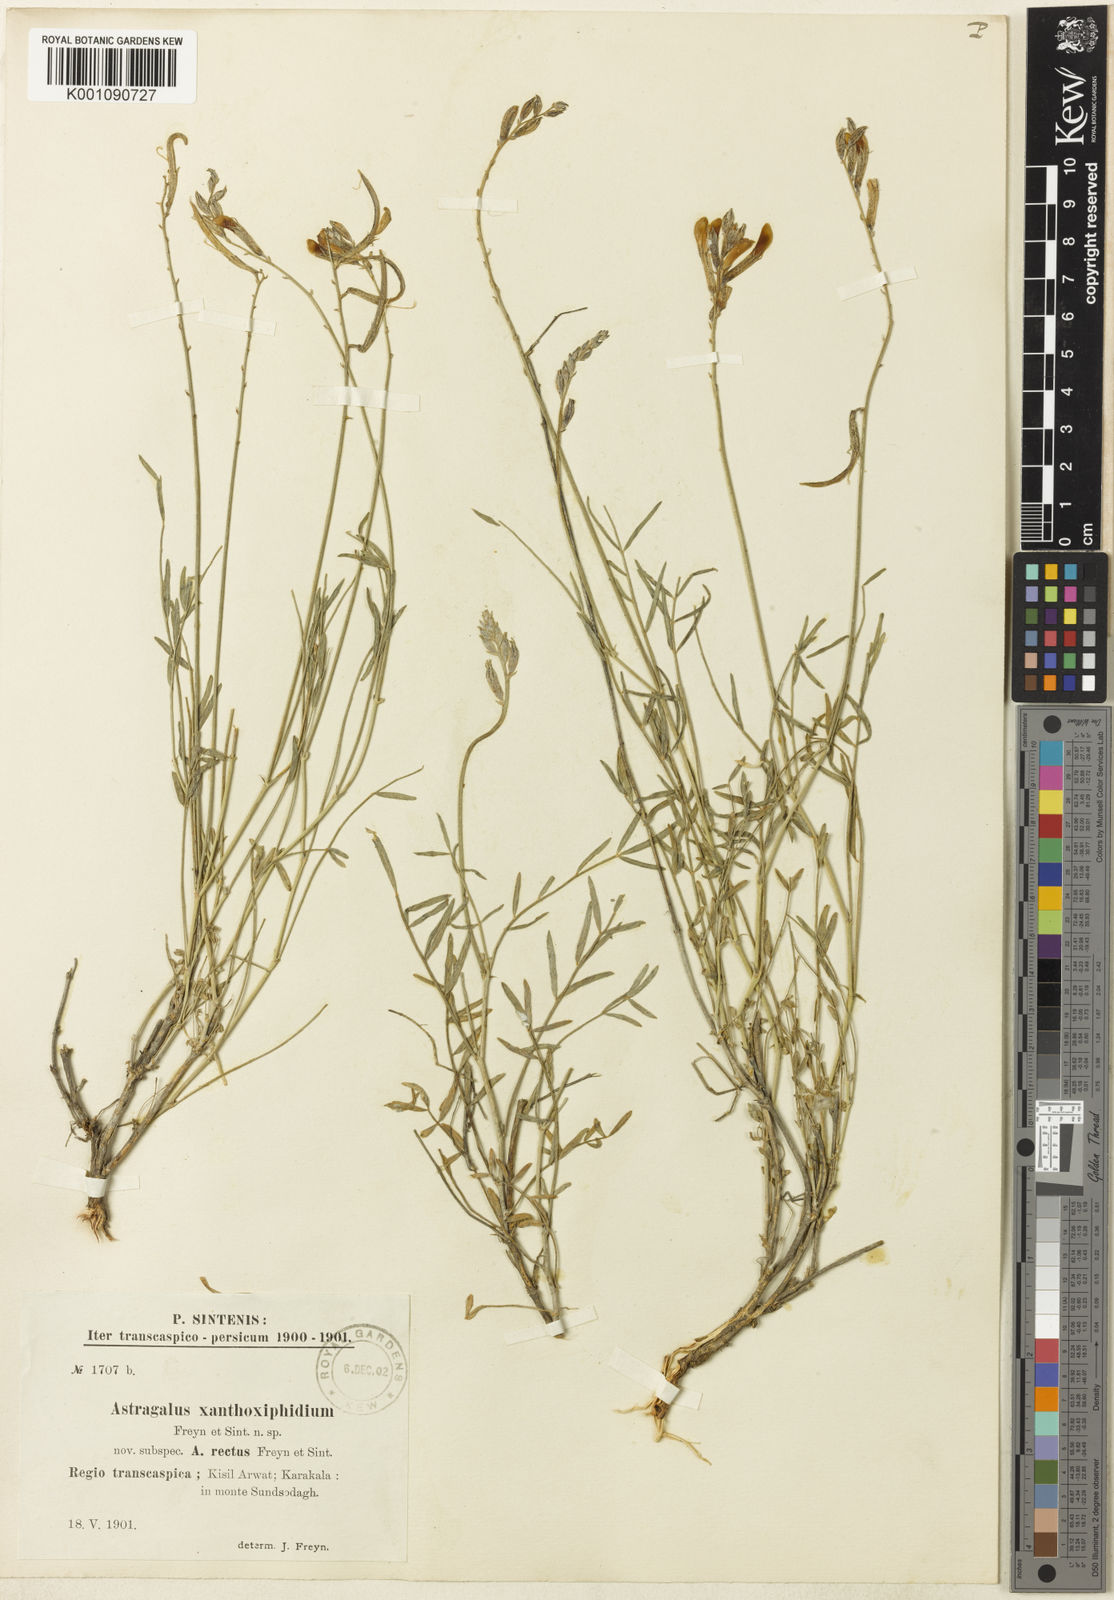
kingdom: Plantae
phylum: Tracheophyta
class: Magnoliopsida
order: Fabales
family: Fabaceae
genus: Astragalus
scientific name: Astragalus
